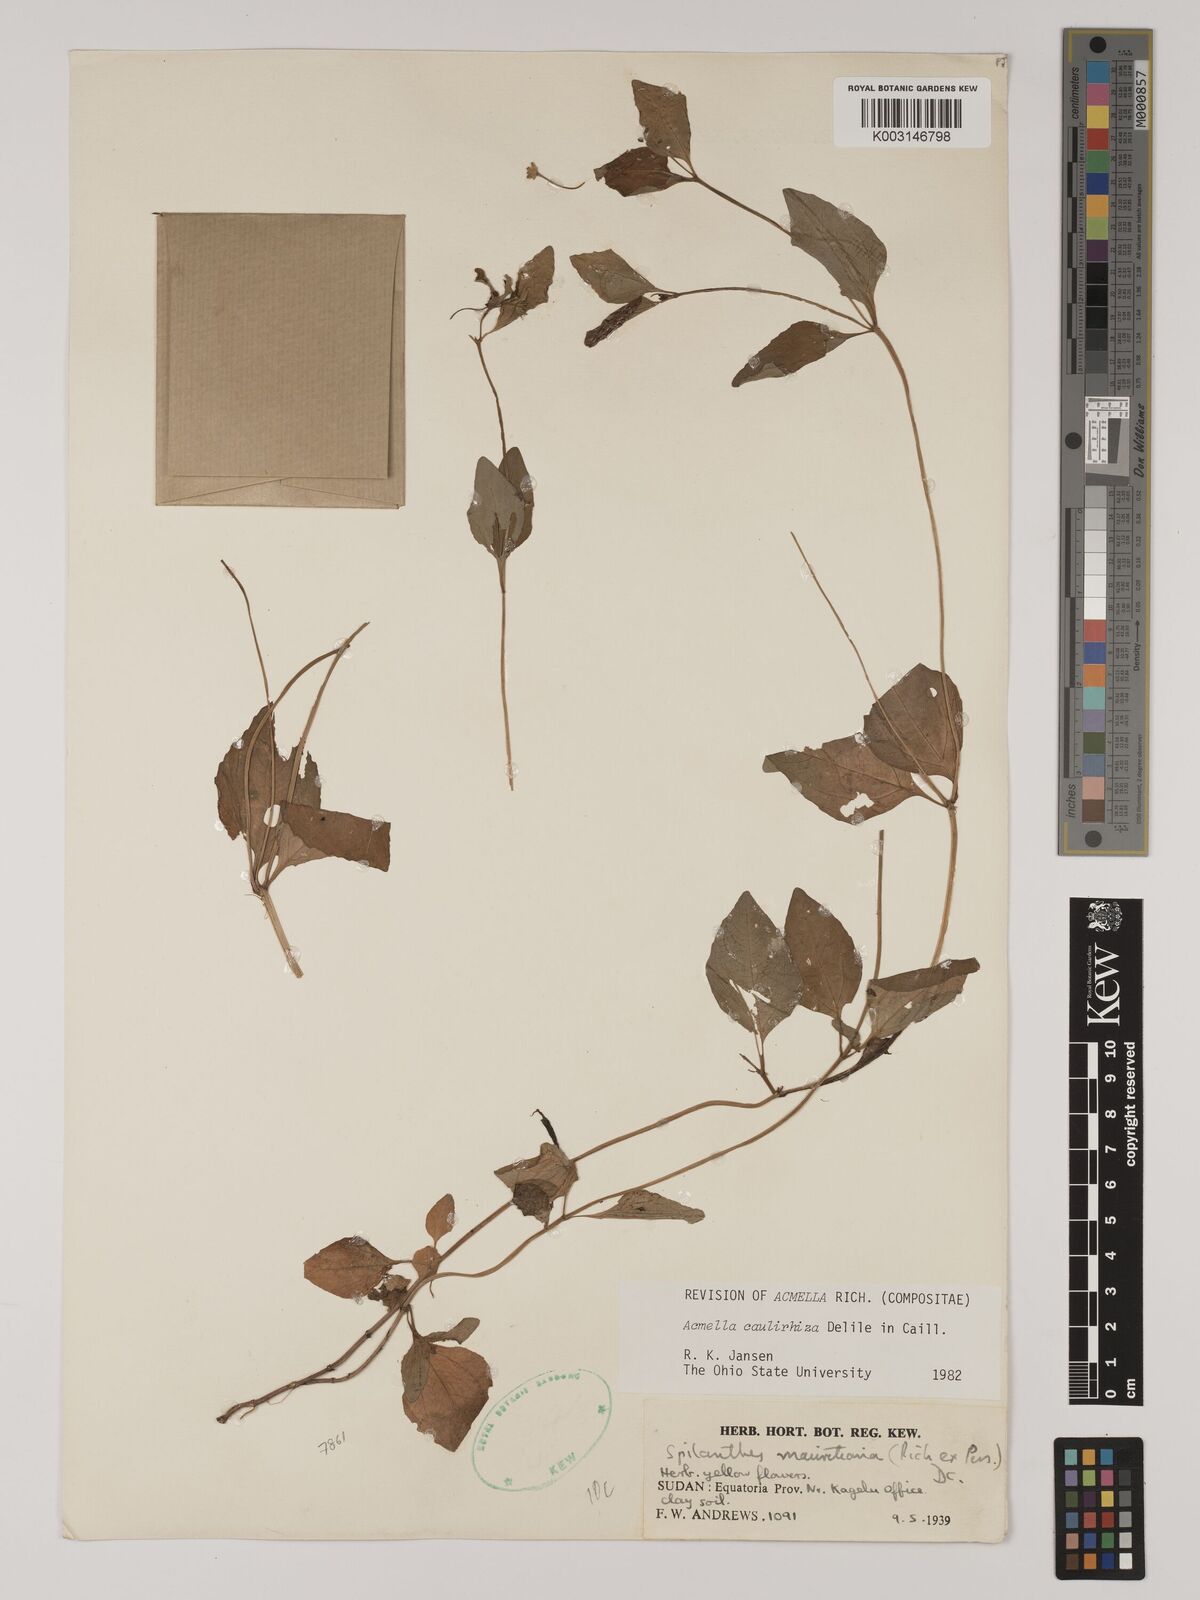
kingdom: Plantae
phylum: Tracheophyta
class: Magnoliopsida
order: Asterales
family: Asteraceae
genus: Acmella
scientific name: Acmella caulirhiza
